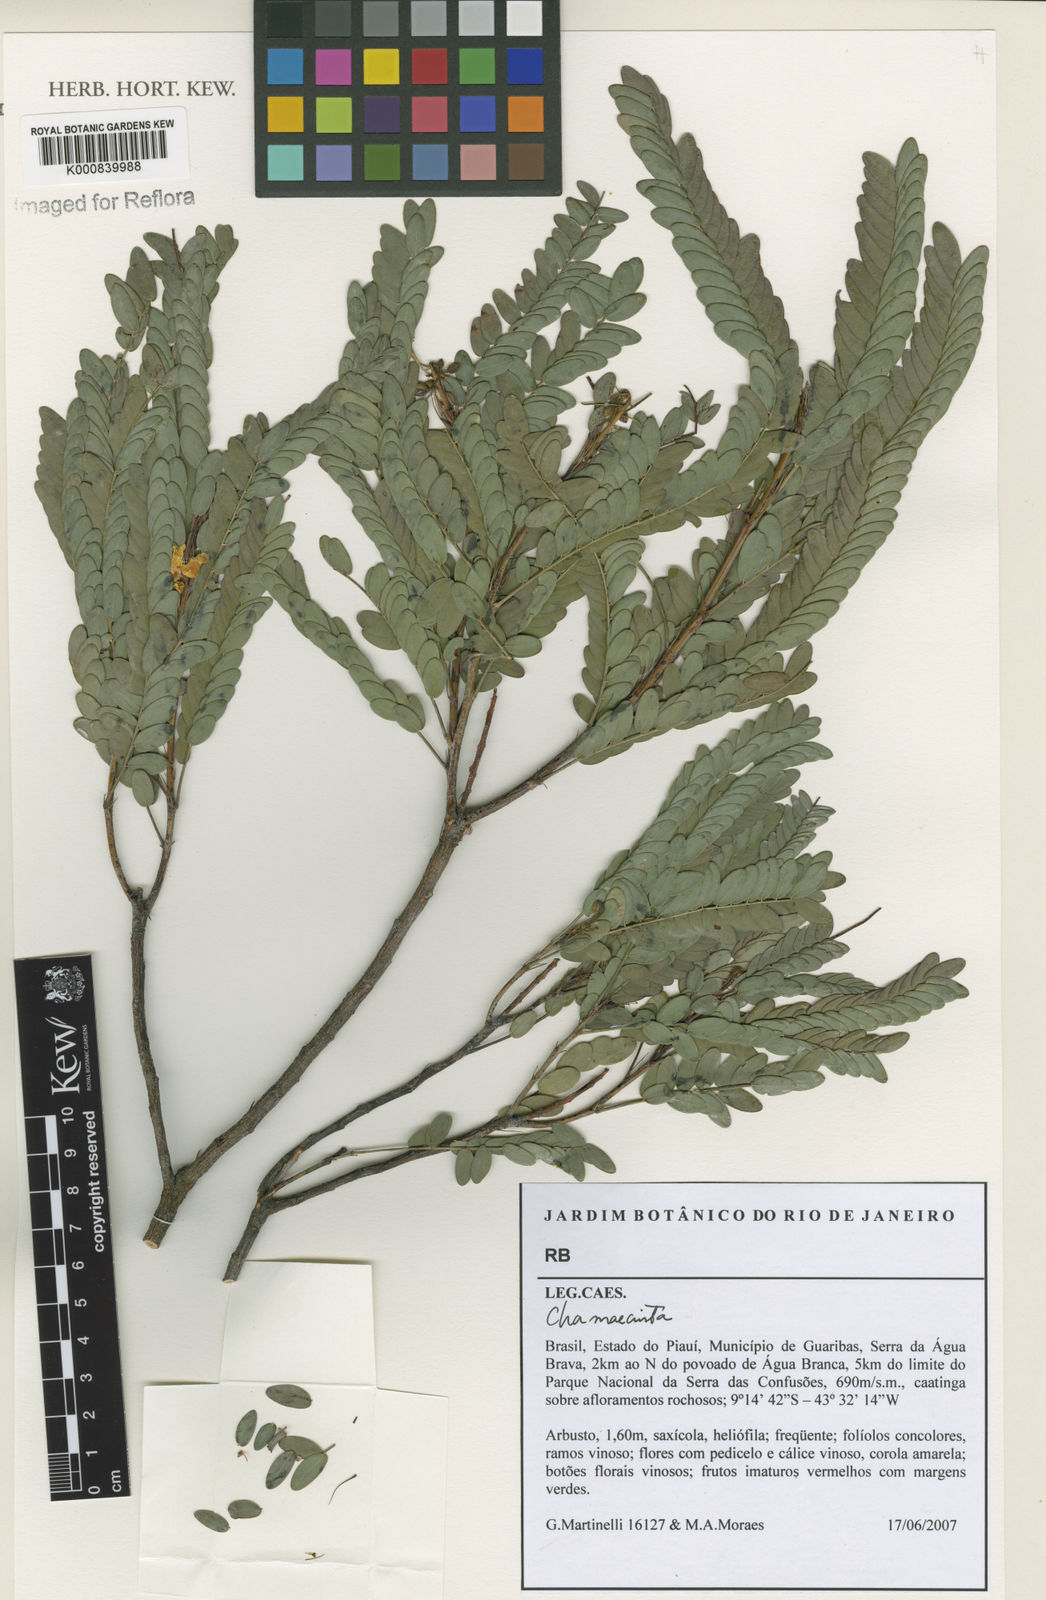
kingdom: Plantae
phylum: Tracheophyta
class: Magnoliopsida
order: Fabales
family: Fabaceae
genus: Chamaecrista
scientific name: Chamaecrista
